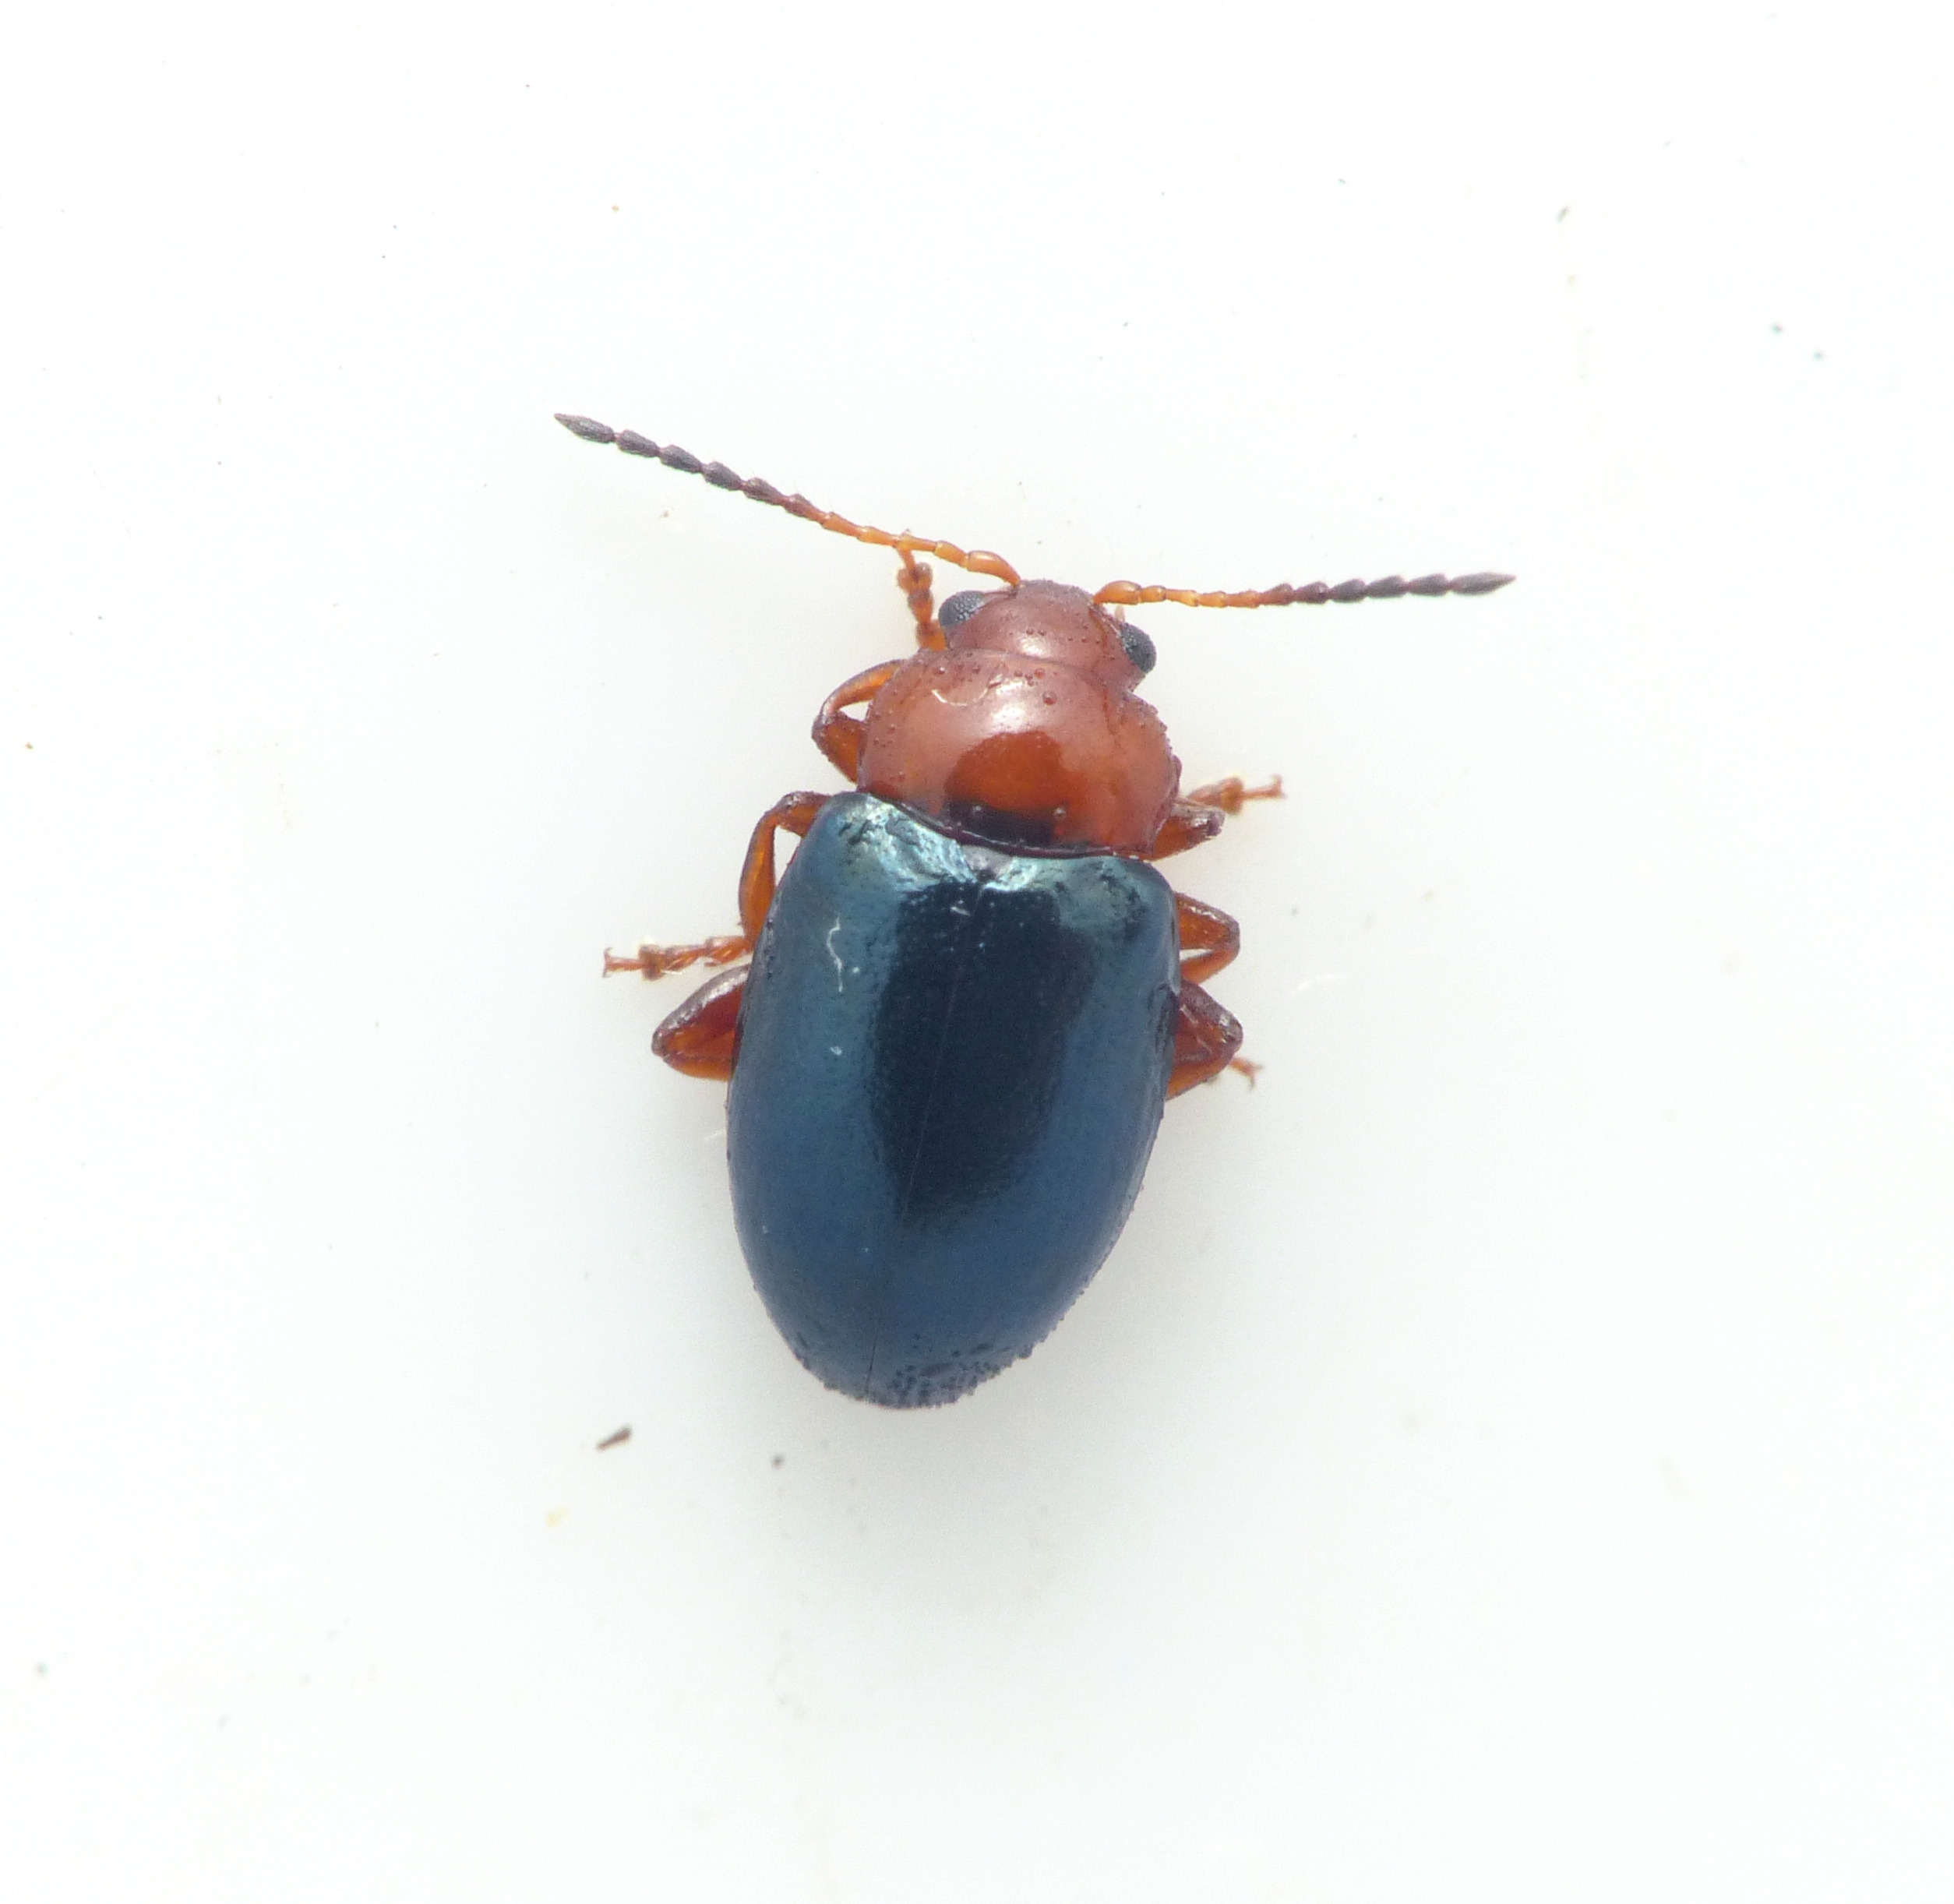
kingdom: Animalia
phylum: Arthropoda
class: Insecta
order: Coleoptera
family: Chrysomelidae
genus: Podagrica
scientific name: Podagrica fuscicornis
